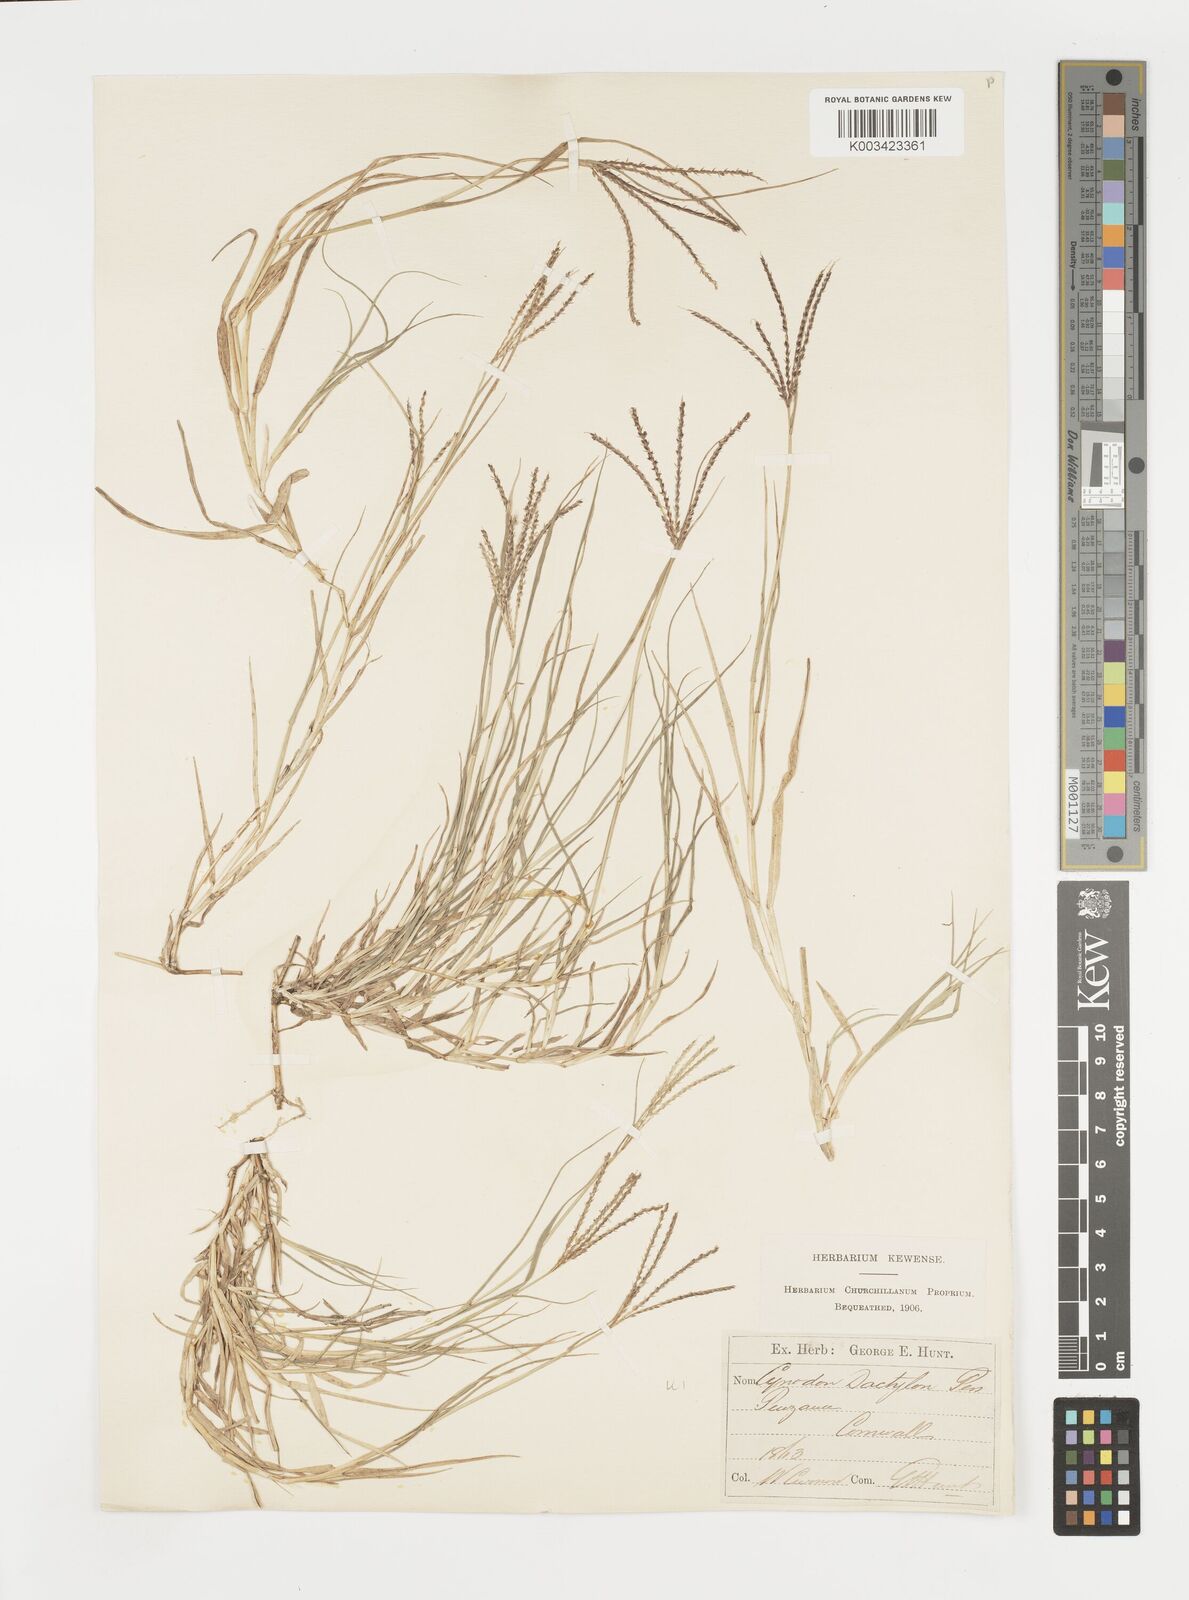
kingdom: Plantae
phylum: Tracheophyta
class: Liliopsida
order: Poales
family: Poaceae
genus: Cynodon
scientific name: Cynodon dactylon
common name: Bermuda grass
